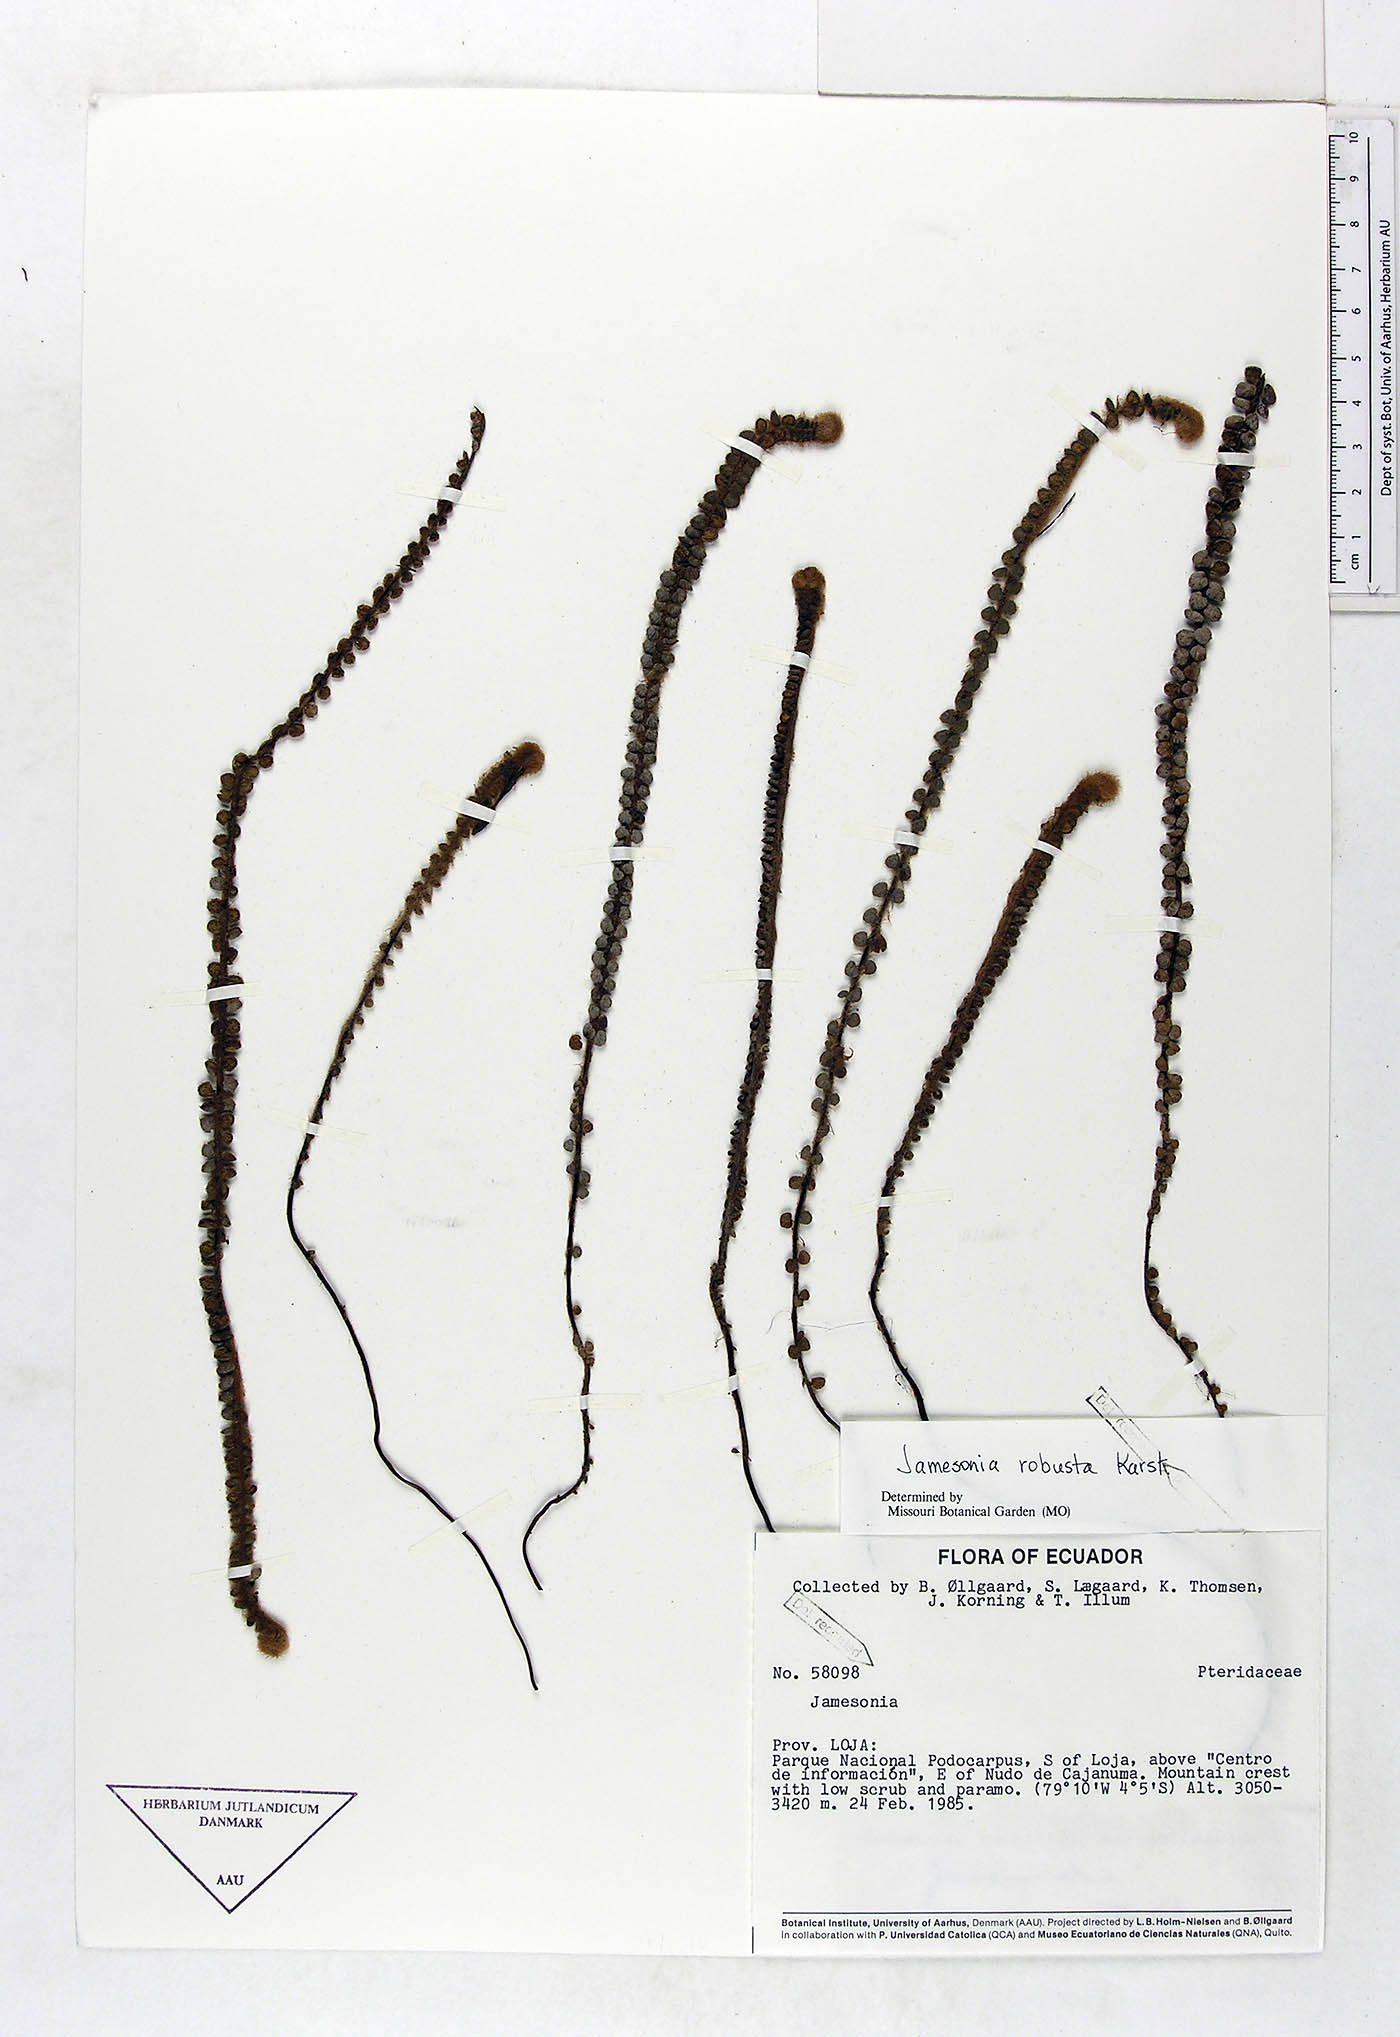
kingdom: Plantae
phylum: Tracheophyta
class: Polypodiopsida
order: Polypodiales
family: Pteridaceae
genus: Jamesonia
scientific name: Jamesonia robusta
